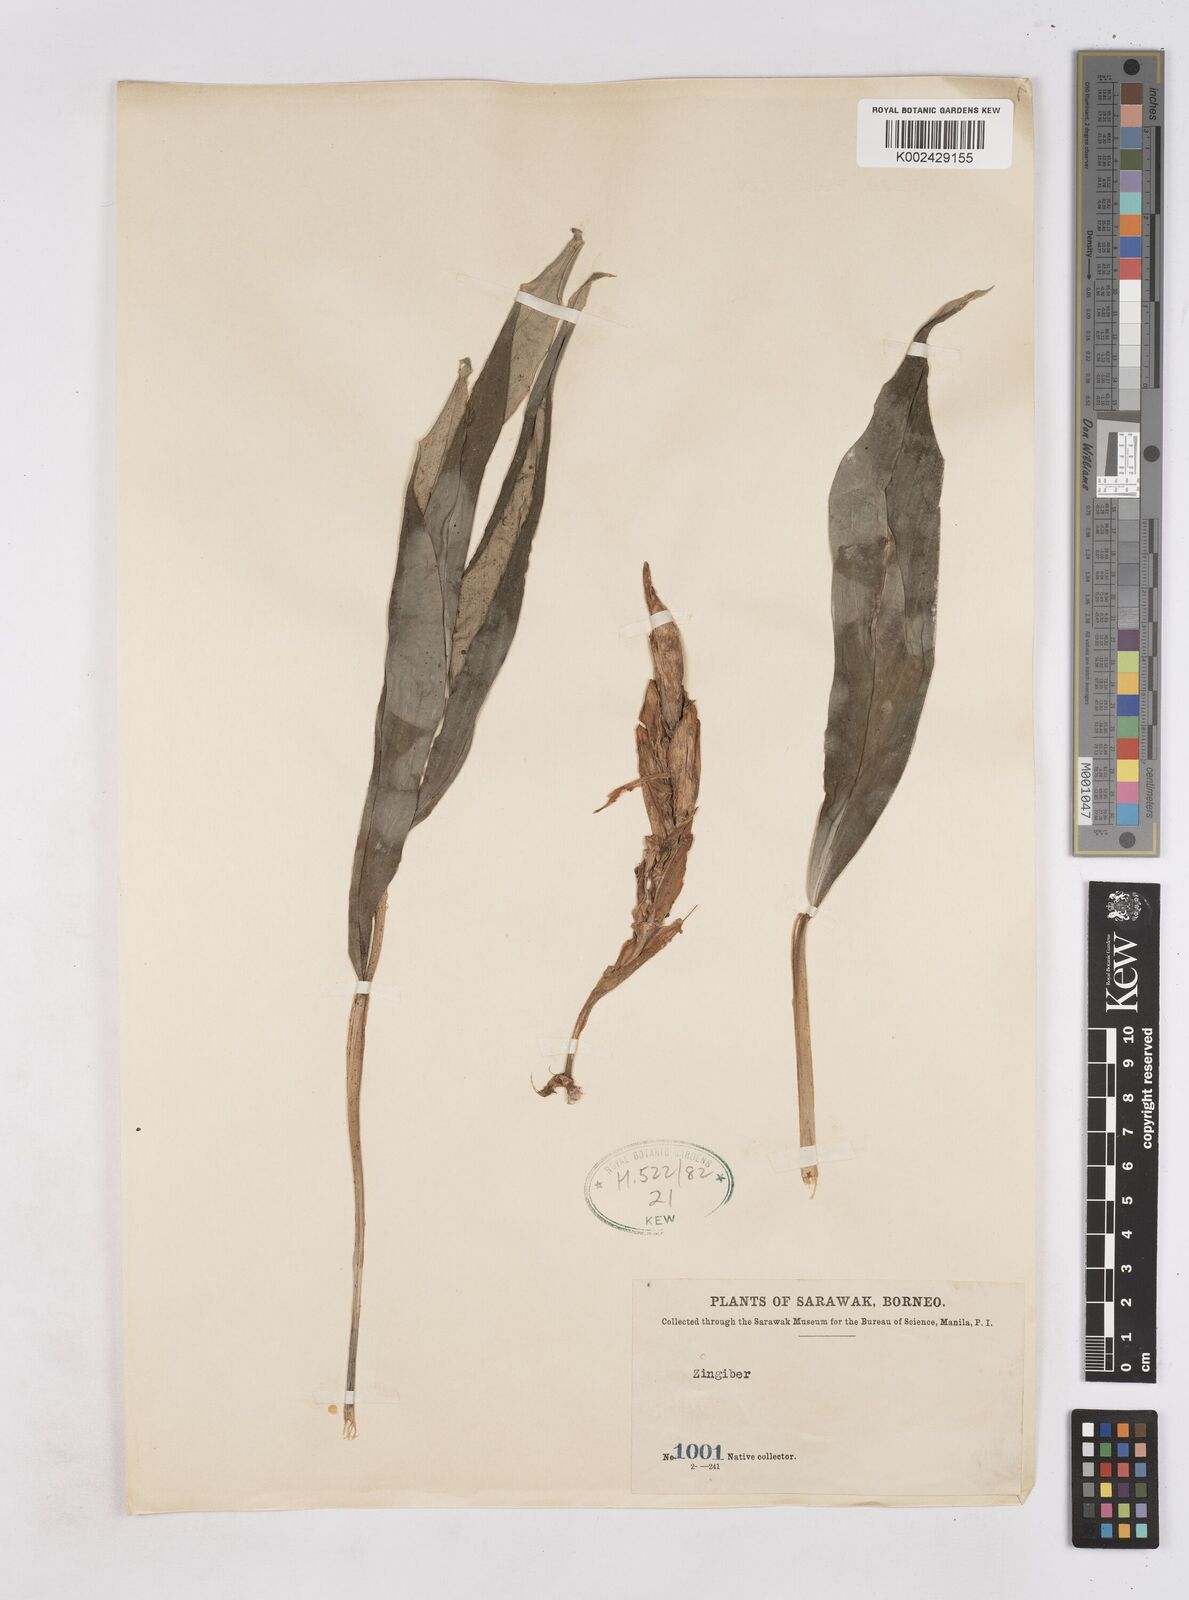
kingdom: Plantae
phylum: Tracheophyta
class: Liliopsida
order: Zingiberales
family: Zingiberaceae
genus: Zingiber
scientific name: Zingiber
